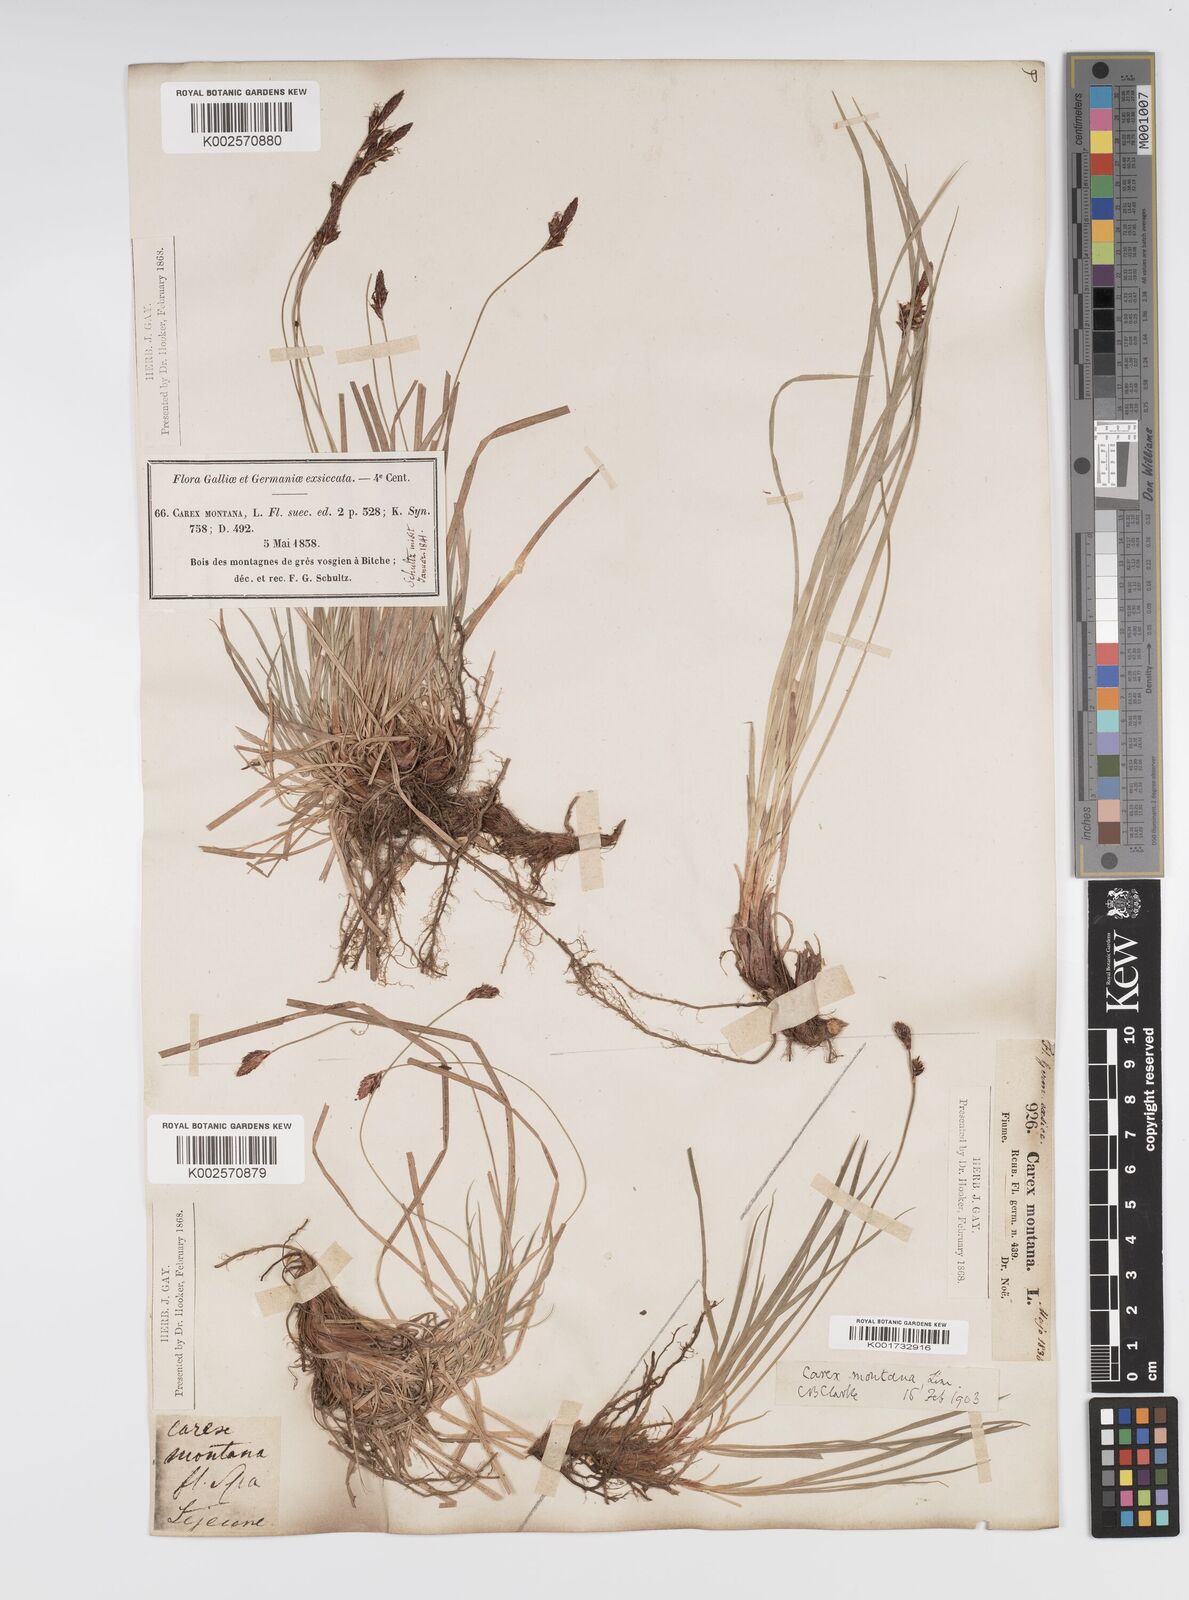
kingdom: Plantae
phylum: Tracheophyta
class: Liliopsida
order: Poales
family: Cyperaceae
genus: Carex
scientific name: Carex montana
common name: Soft-leaved sedge
